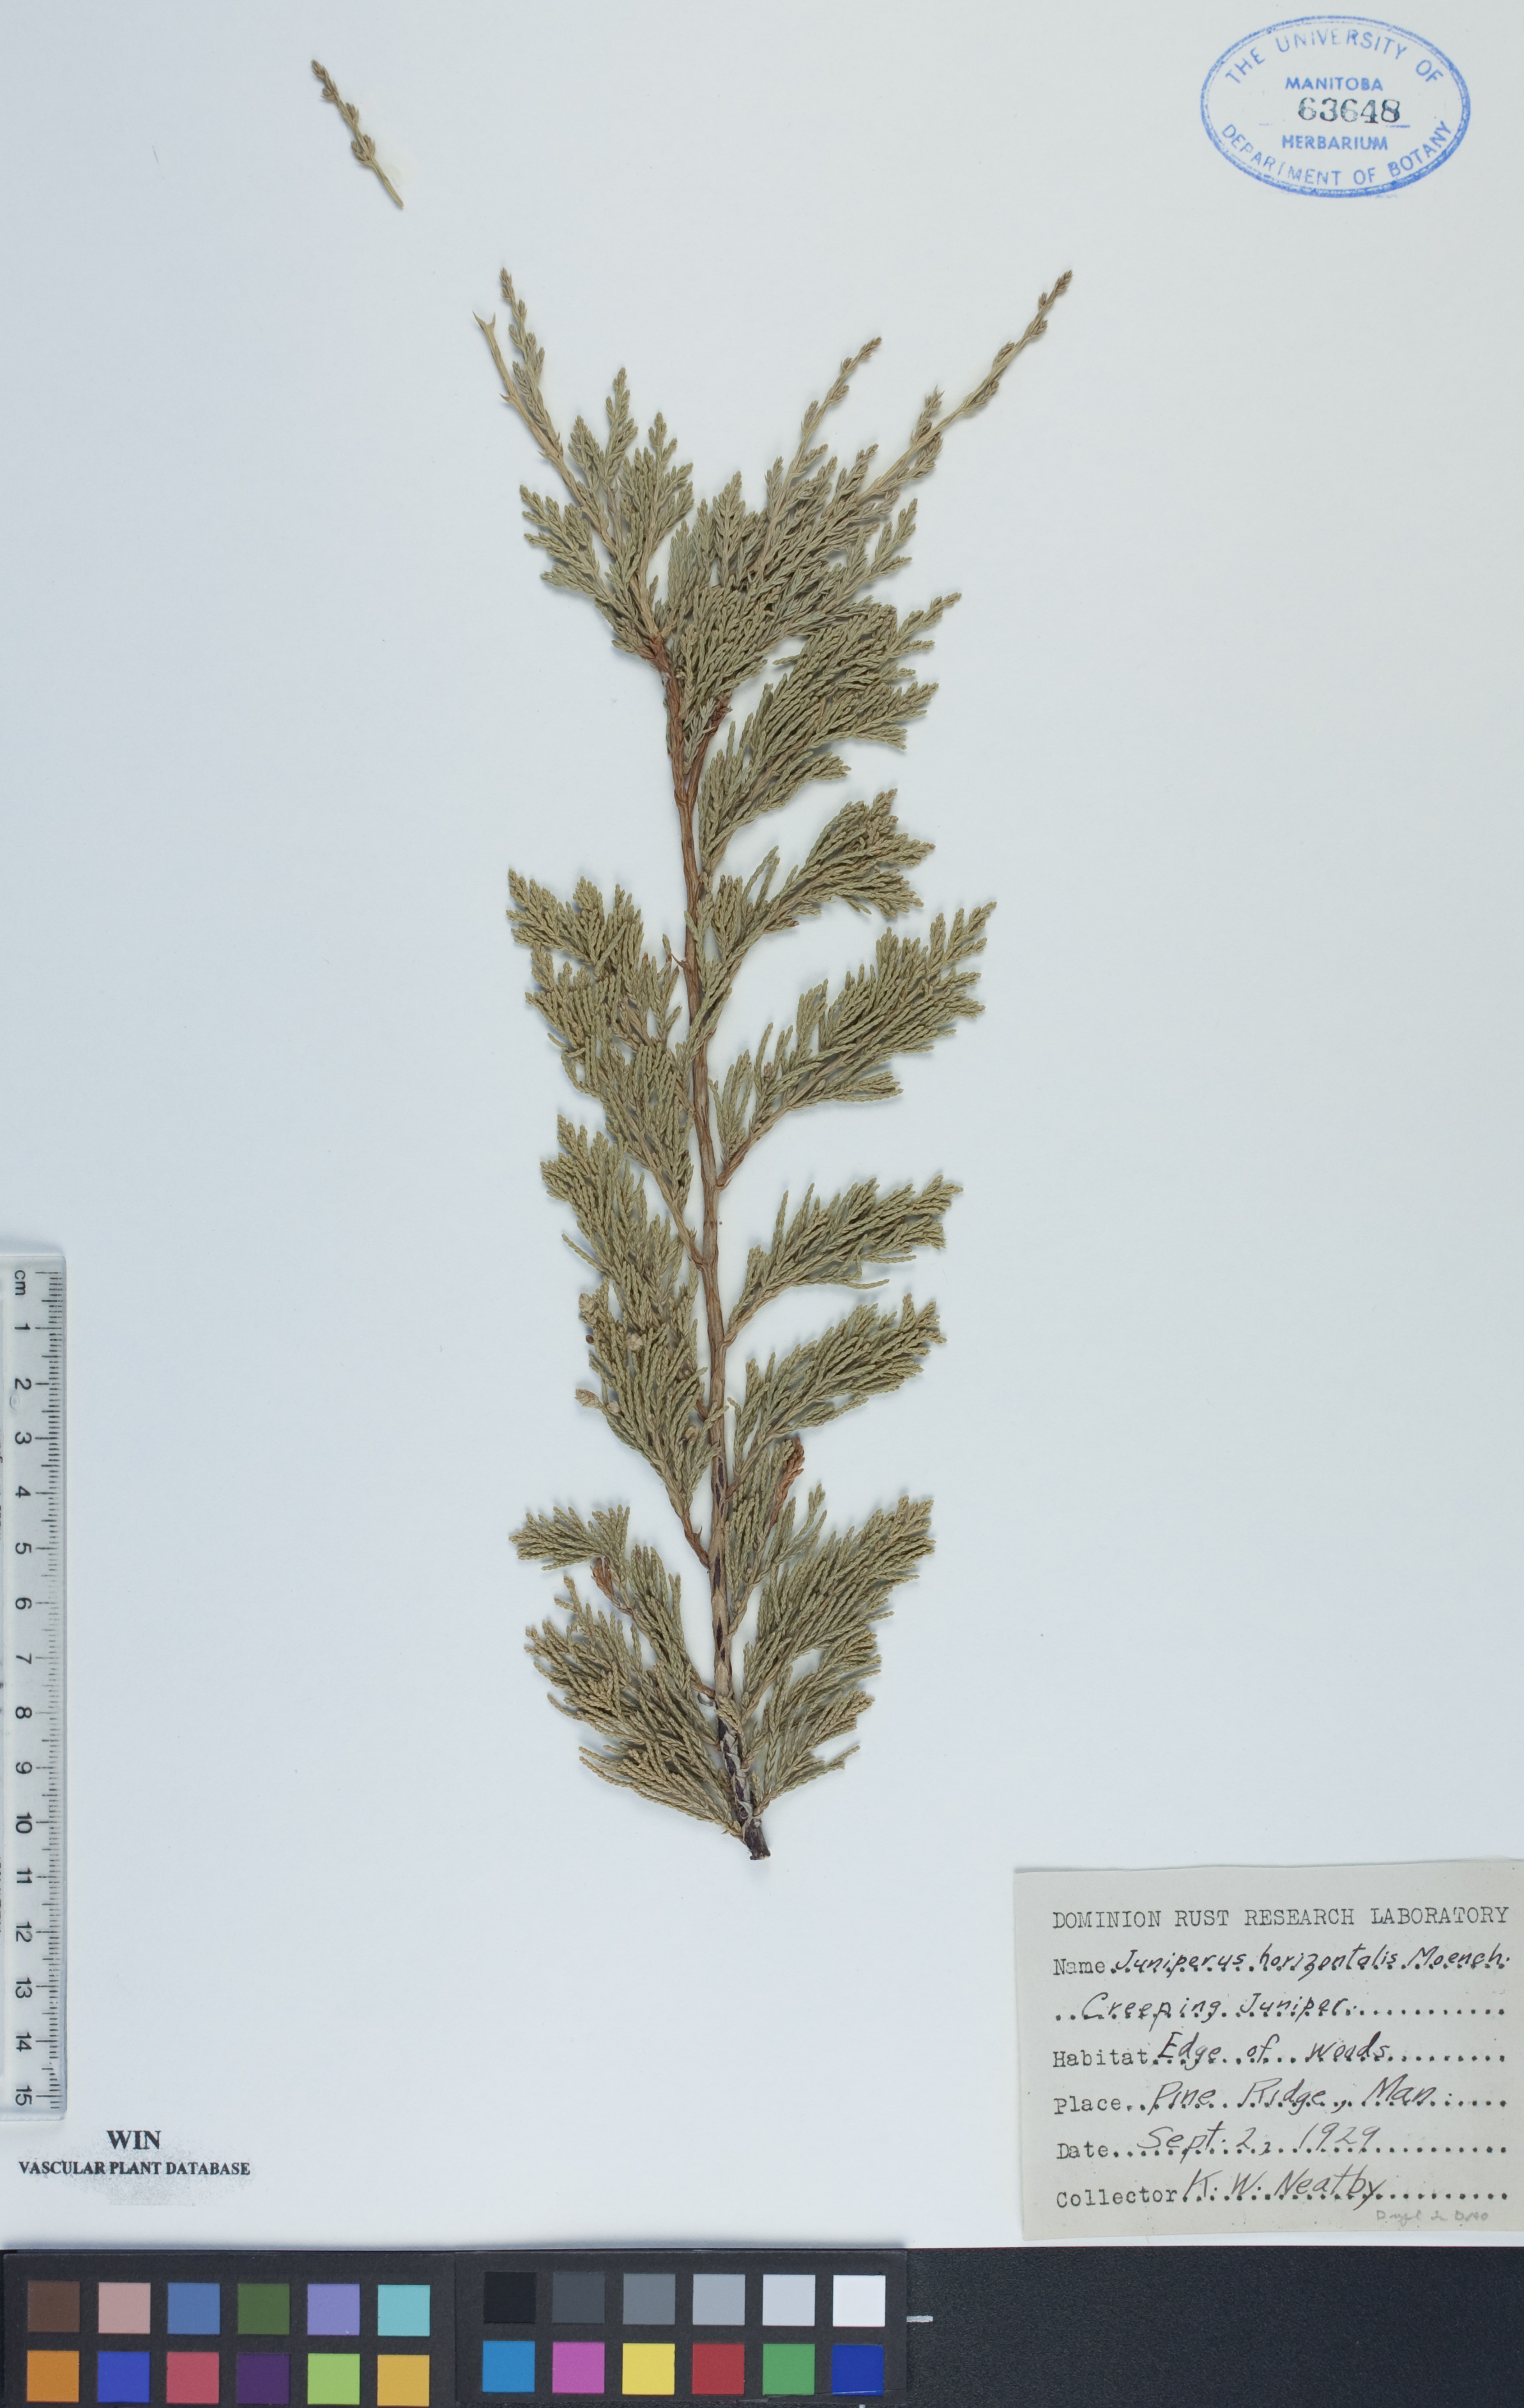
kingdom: Plantae
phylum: Tracheophyta
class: Pinopsida
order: Pinales
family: Cupressaceae
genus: Juniperus
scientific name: Juniperus horizontalis
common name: Creeping juniper
